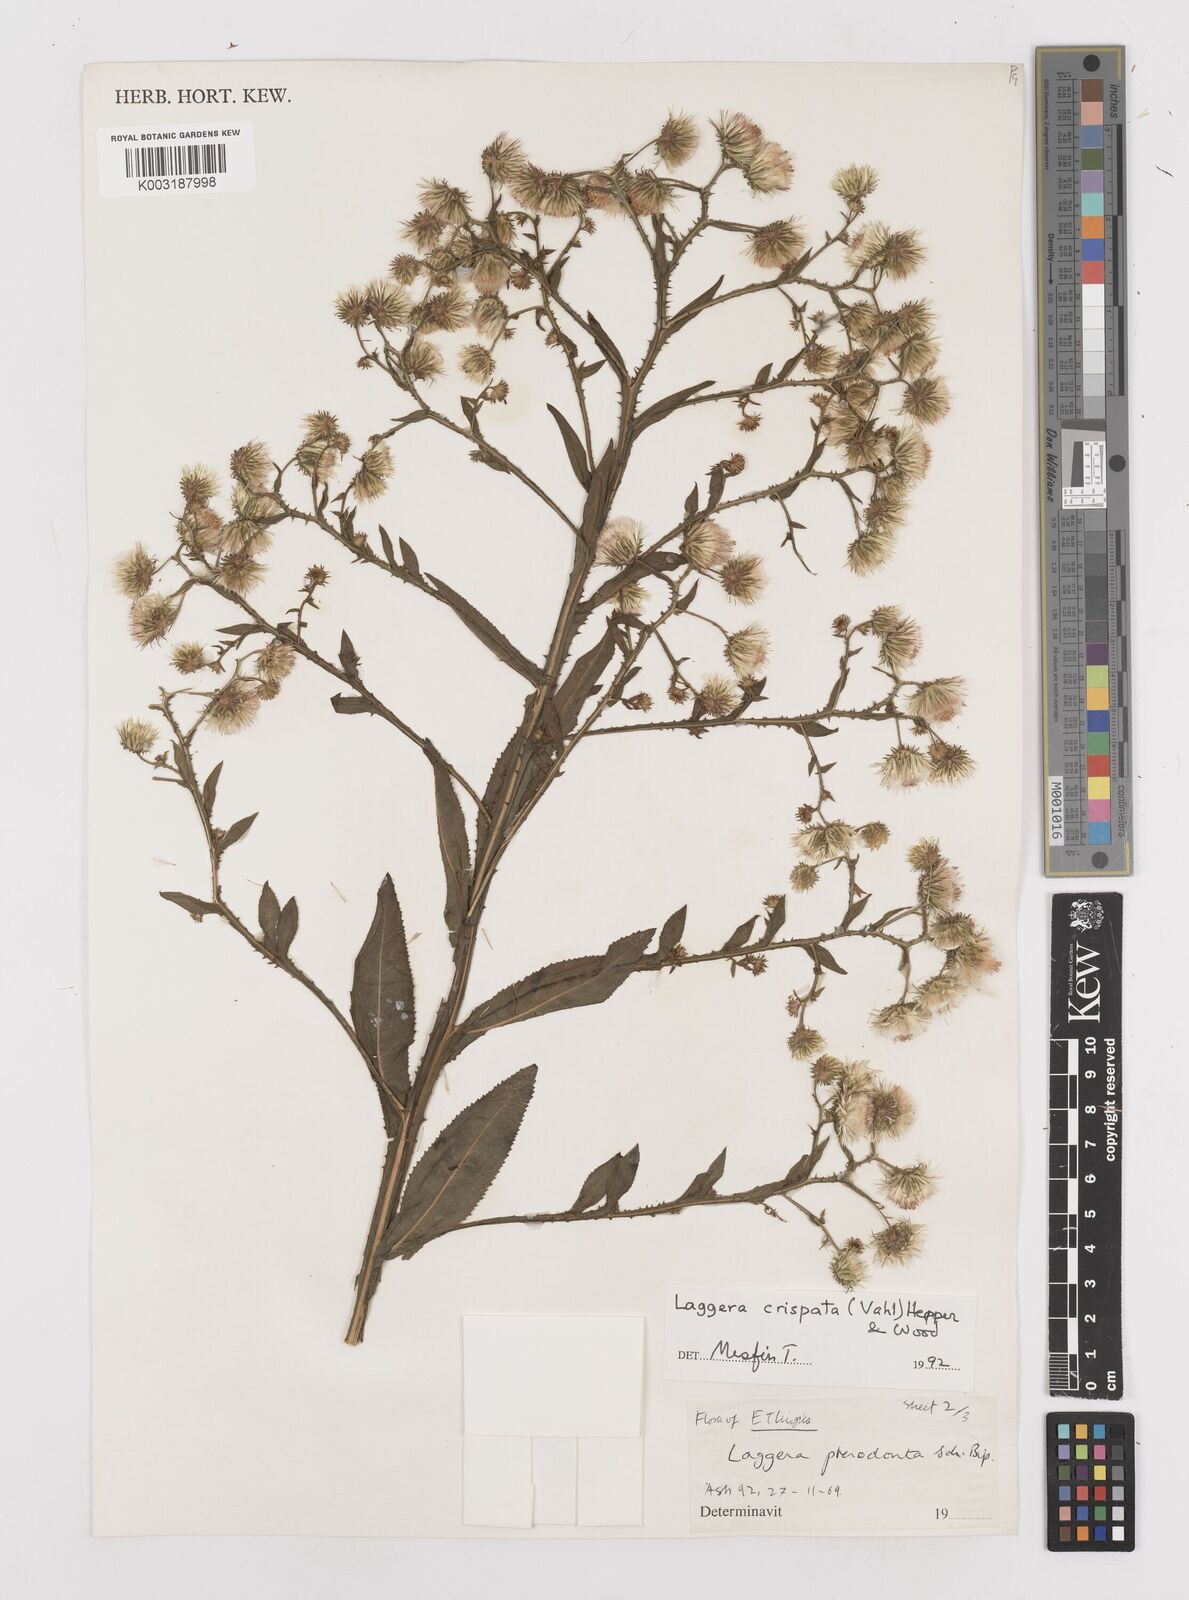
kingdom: Plantae
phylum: Tracheophyta
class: Magnoliopsida
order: Asterales
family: Asteraceae
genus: Laggera
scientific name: Laggera crispata
